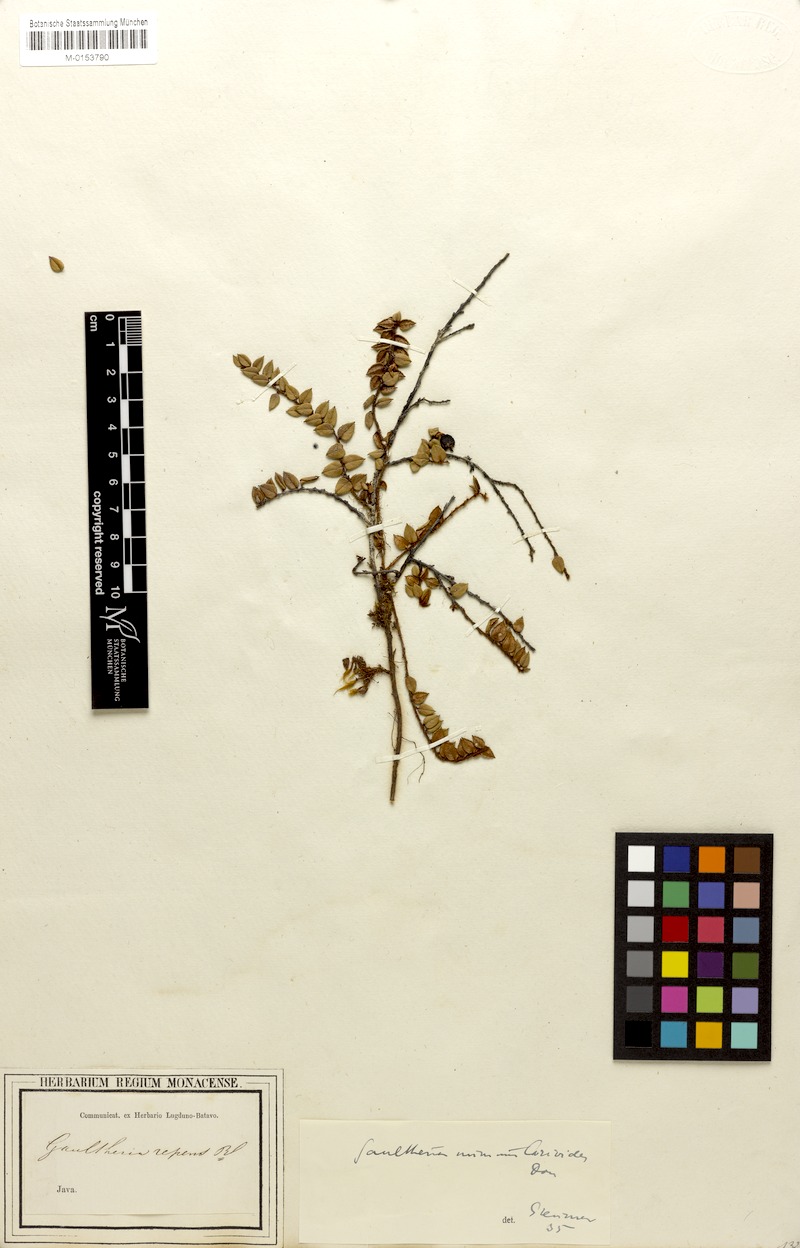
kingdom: Plantae
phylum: Tracheophyta
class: Magnoliopsida
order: Ericales
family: Ericaceae
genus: Gaultheria
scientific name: Gaultheria nummularioides
